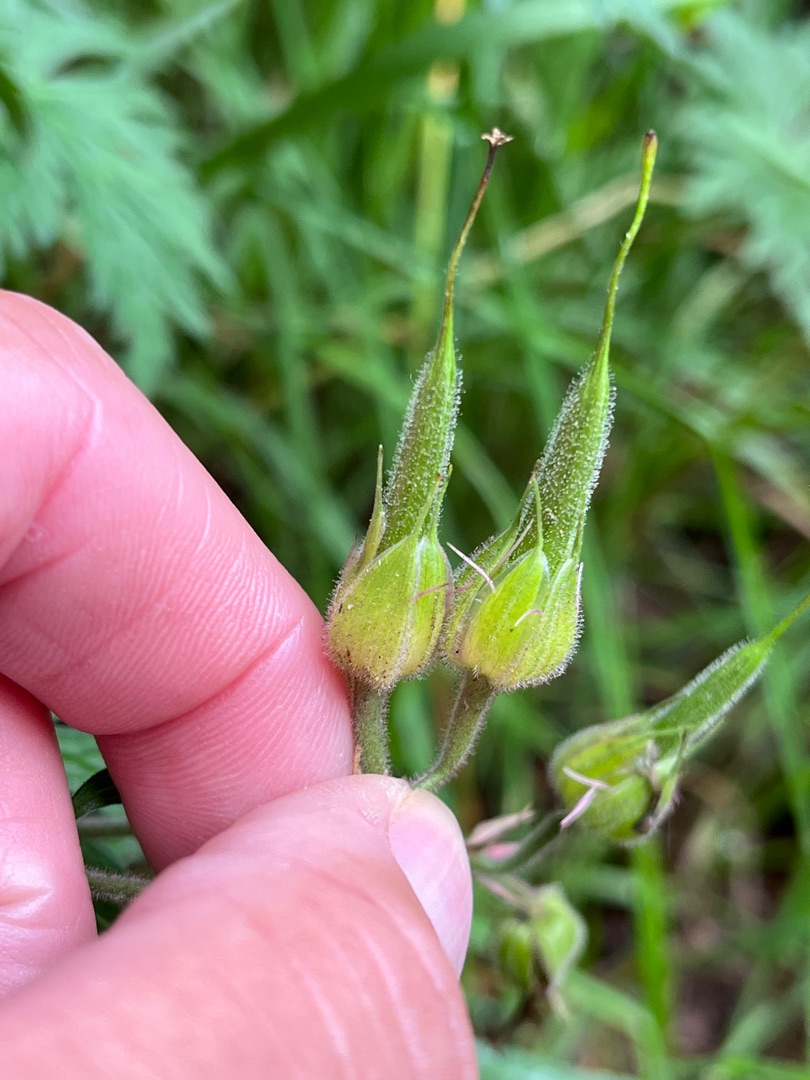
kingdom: Plantae
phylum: Tracheophyta
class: Magnoliopsida
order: Geraniales
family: Geraniaceae
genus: Geranium
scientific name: Geranium pratense
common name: Eng-storkenæb
